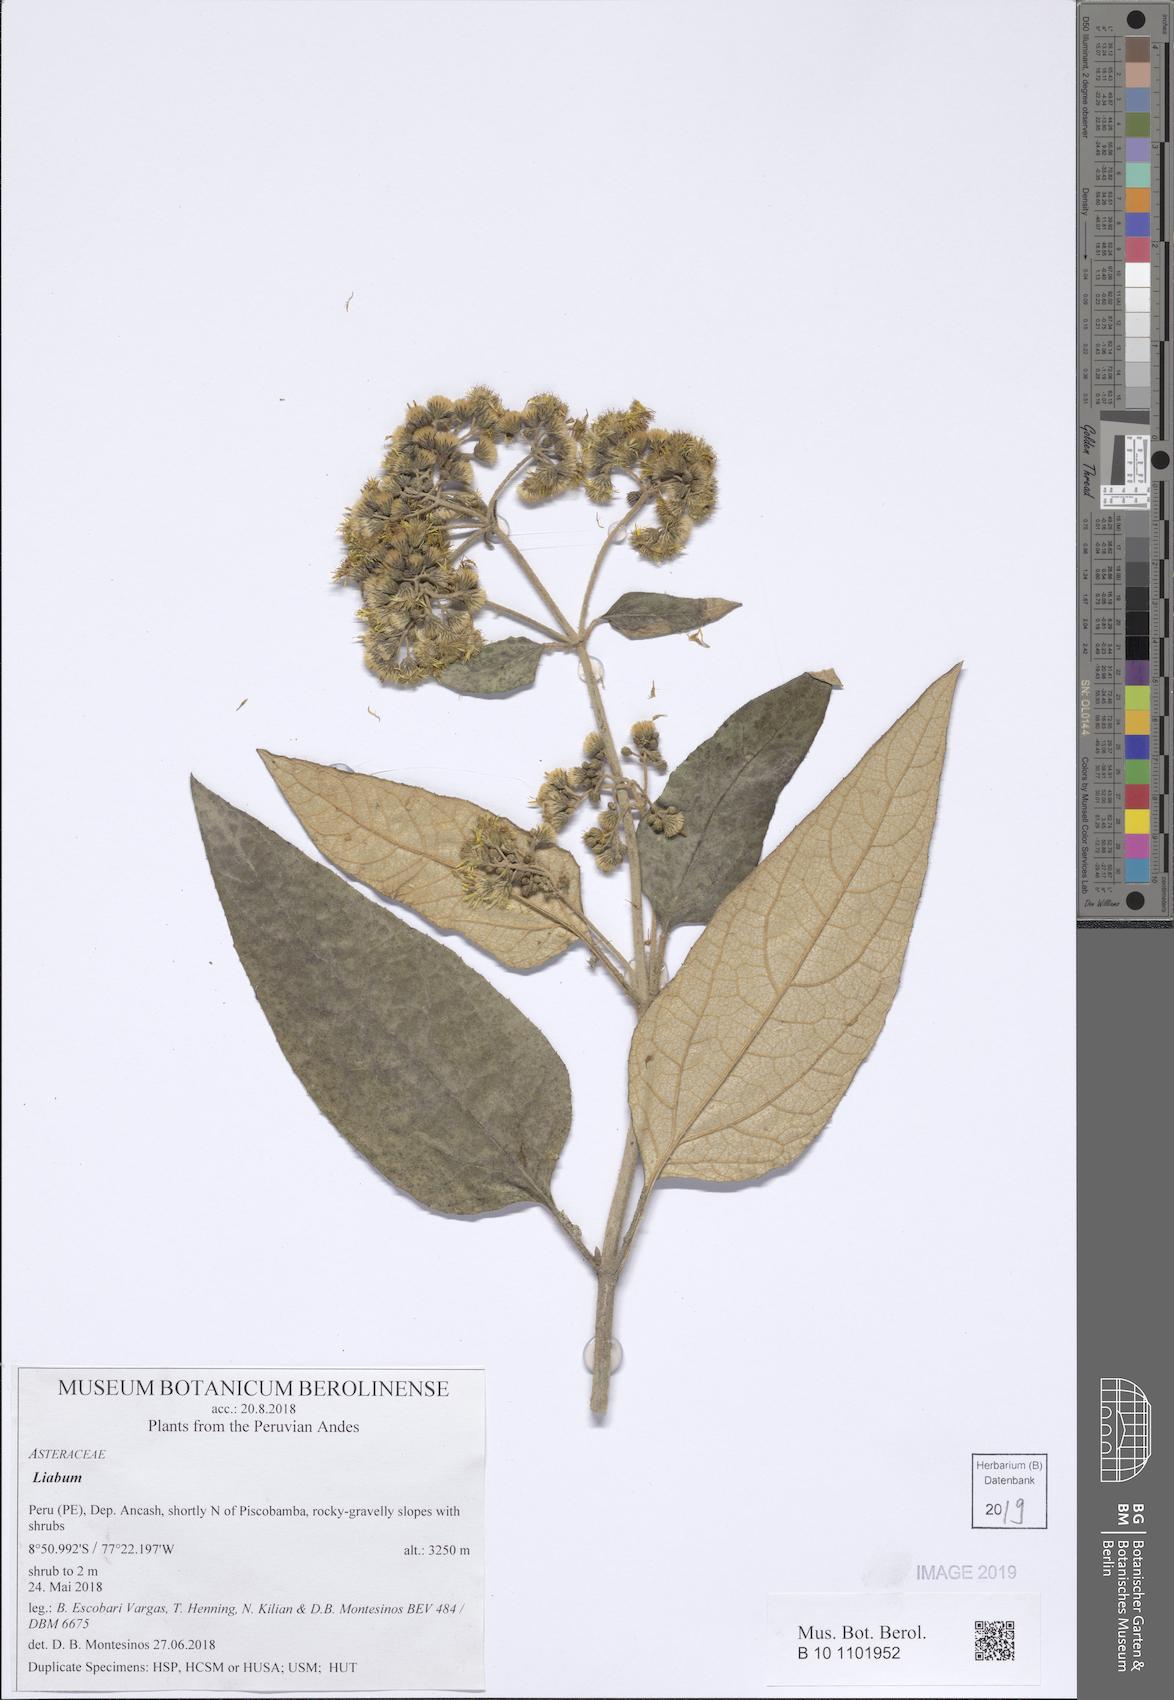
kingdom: Plantae
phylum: Tracheophyta
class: Magnoliopsida
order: Asterales
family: Asteraceae
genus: Liabum
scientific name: Liabum
